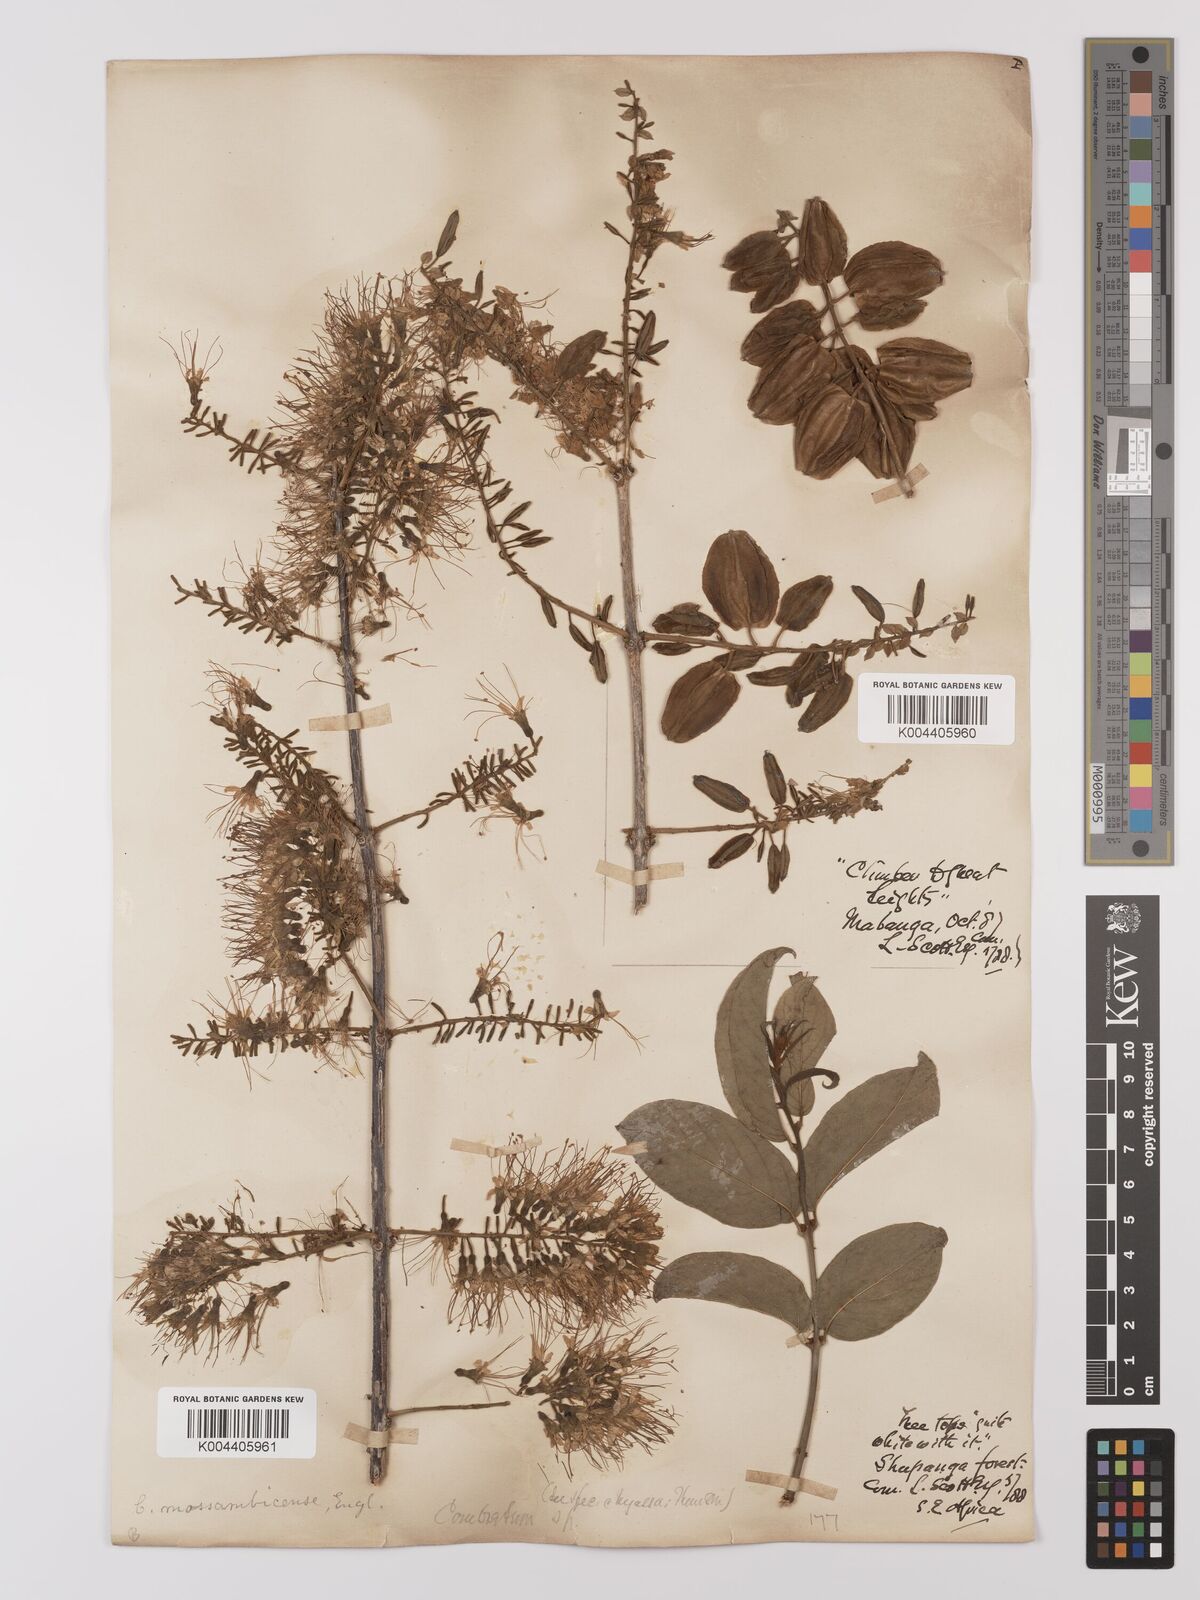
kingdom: Plantae
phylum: Tracheophyta
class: Magnoliopsida
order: Myrtales
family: Combretaceae
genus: Combretum
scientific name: Combretum mossambicense
